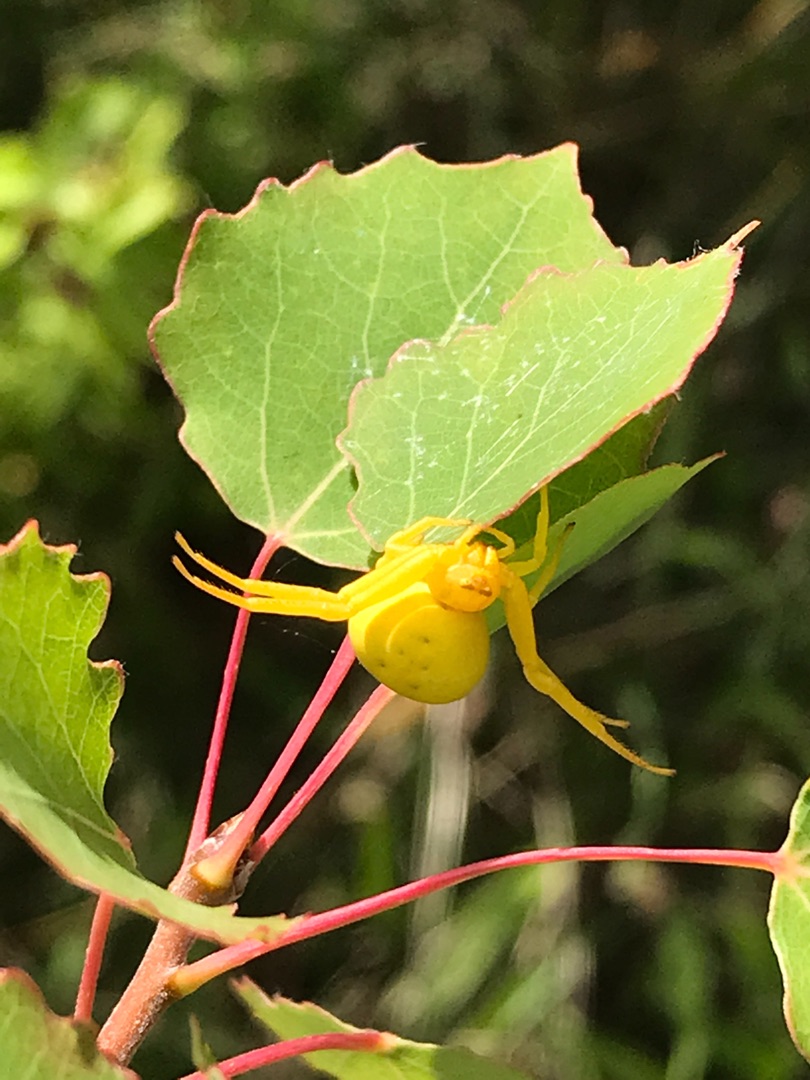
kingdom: Animalia
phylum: Arthropoda
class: Arachnida
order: Araneae
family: Thomisidae
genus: Misumena
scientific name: Misumena vatia
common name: Kamæleonedderkop
